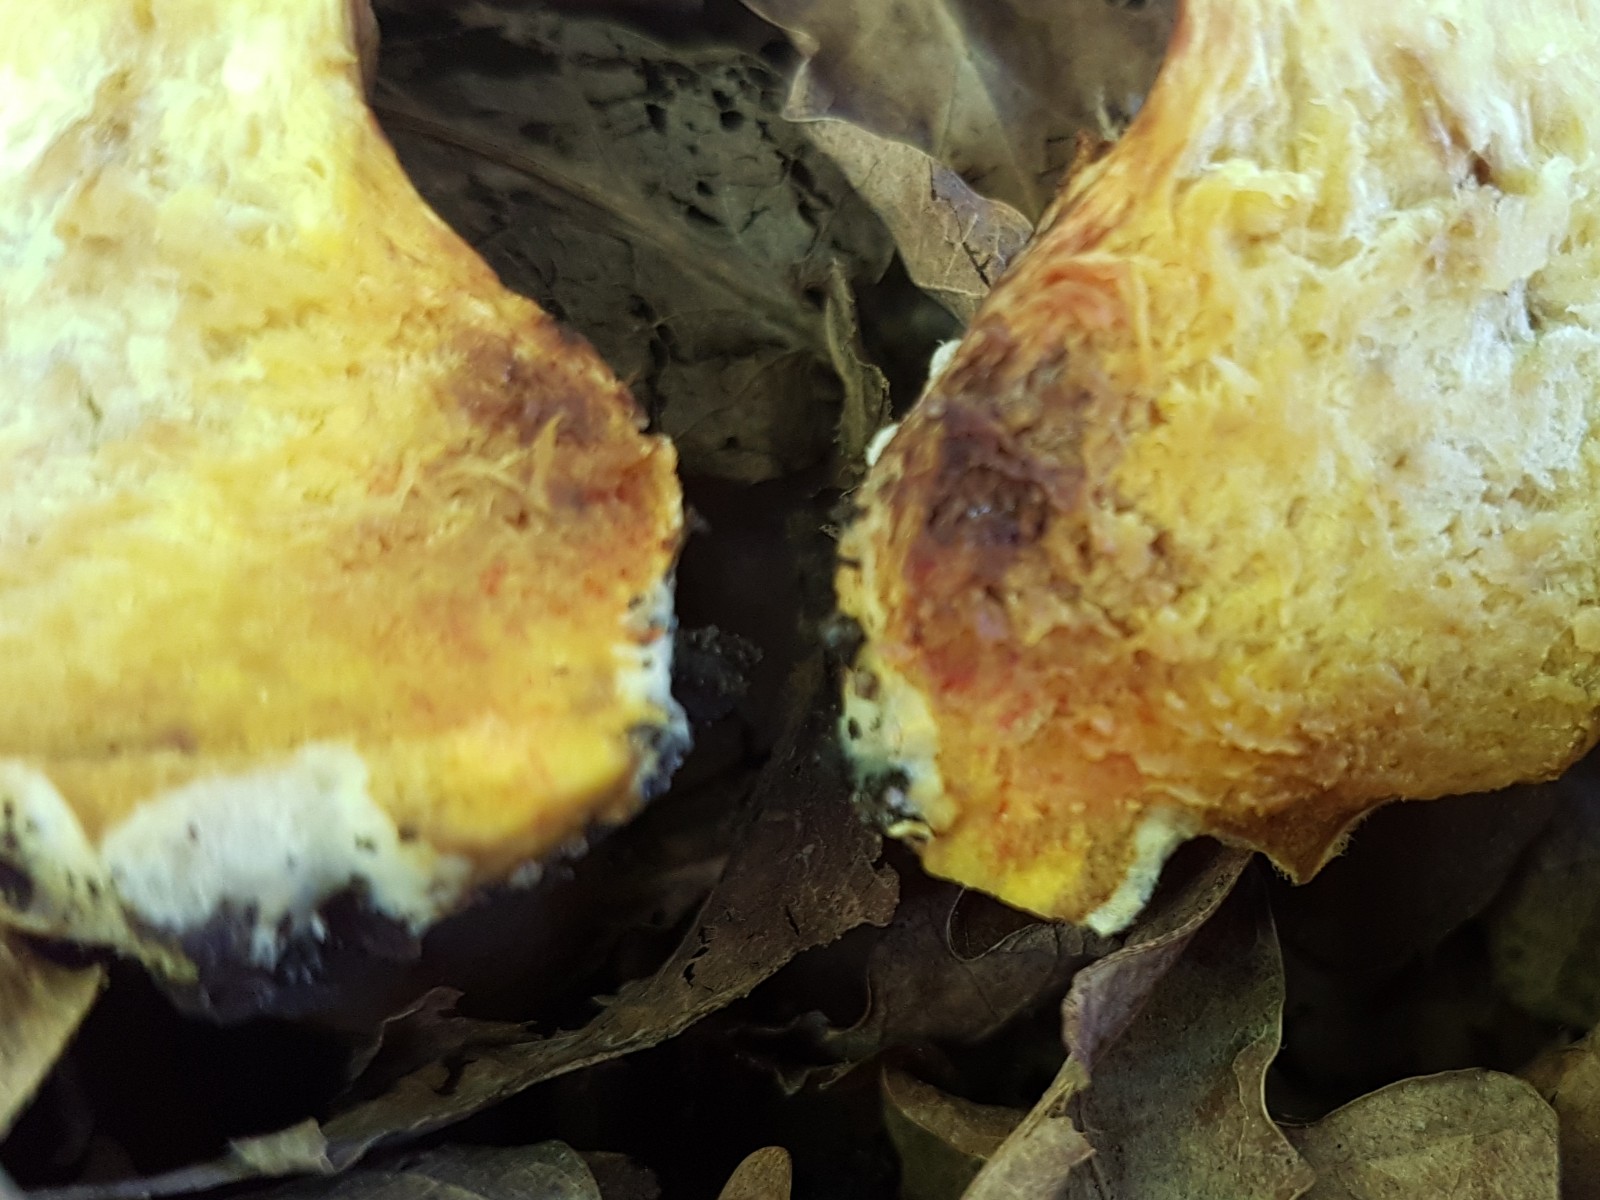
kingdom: Fungi
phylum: Basidiomycota
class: Agaricomycetes
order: Boletales
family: Boletaceae
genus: Hortiboletus
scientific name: Hortiboletus engelii
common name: fersken-rørhat
